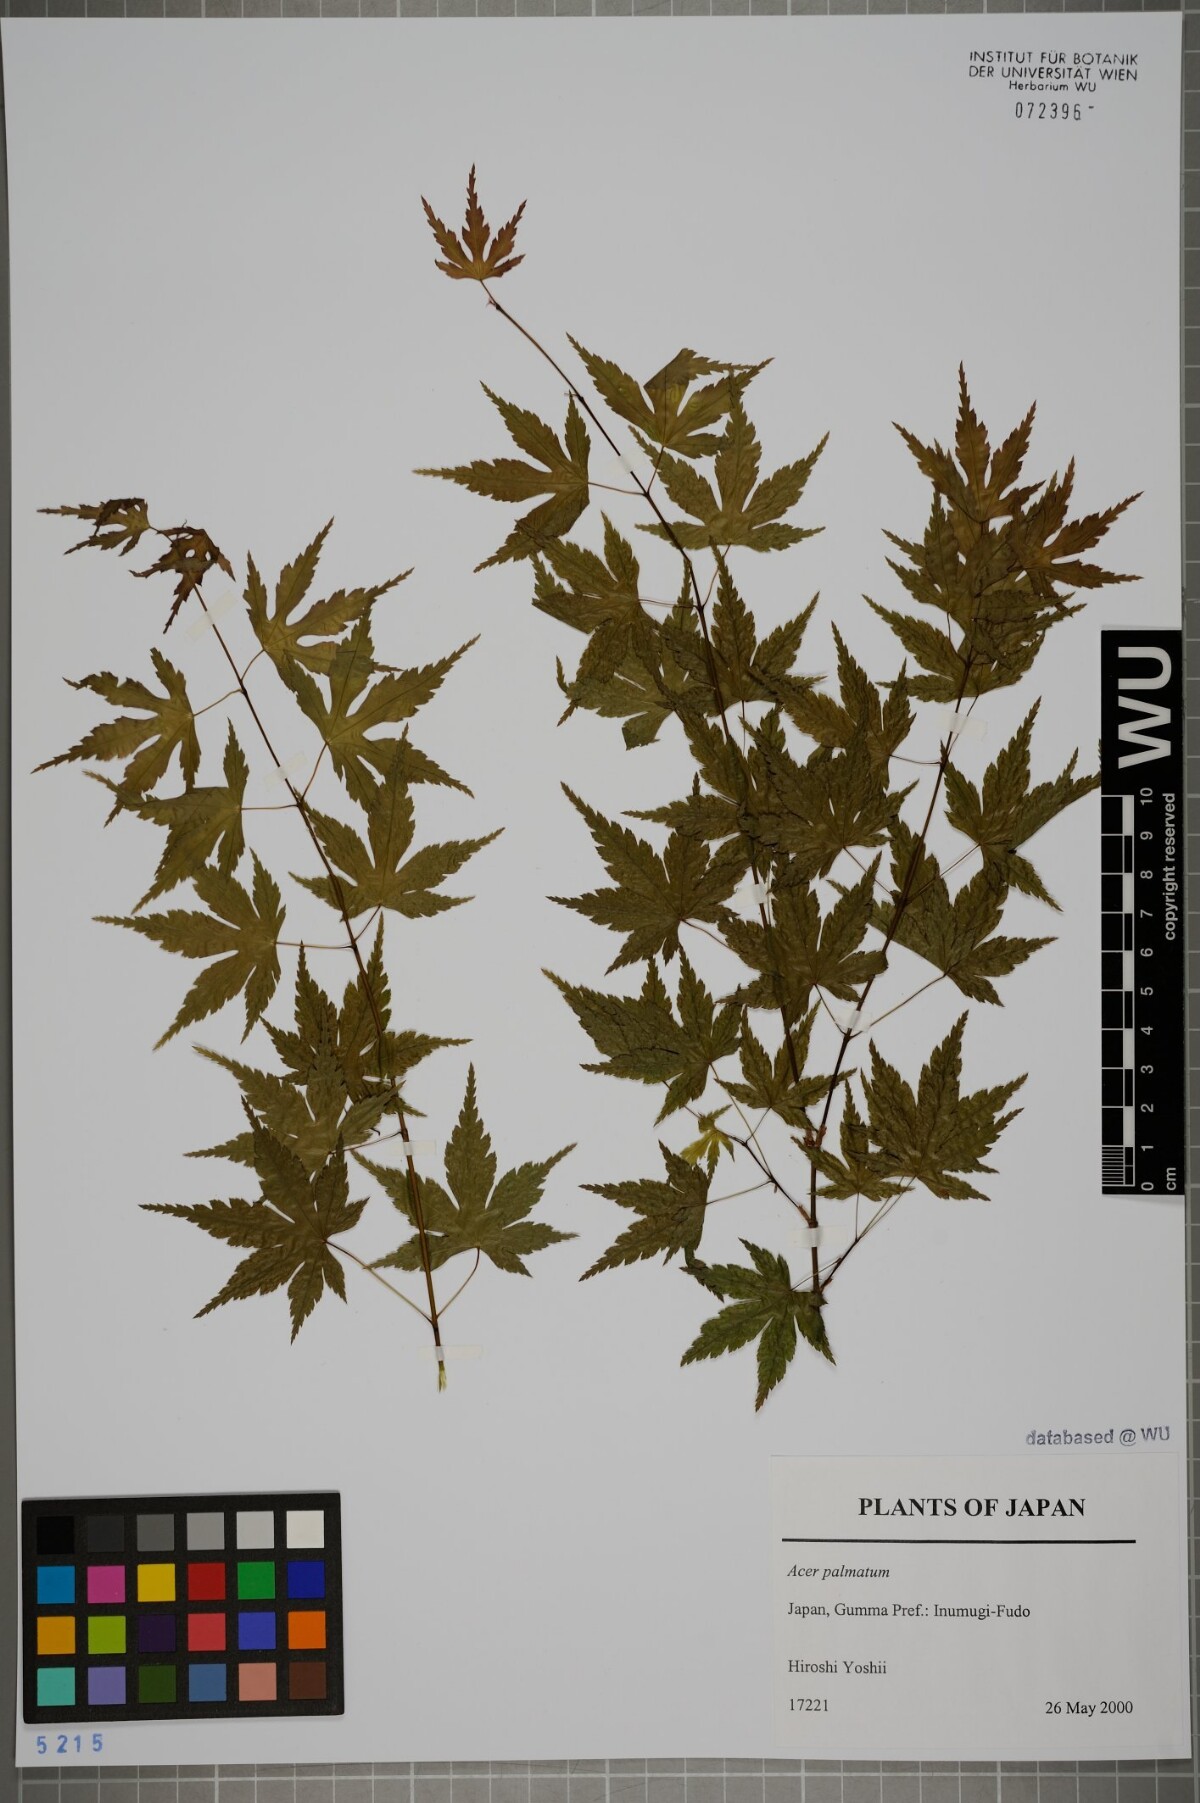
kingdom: Plantae
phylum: Tracheophyta
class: Magnoliopsida
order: Sapindales
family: Sapindaceae
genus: Acer
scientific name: Acer palmatum
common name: Japanese maple
